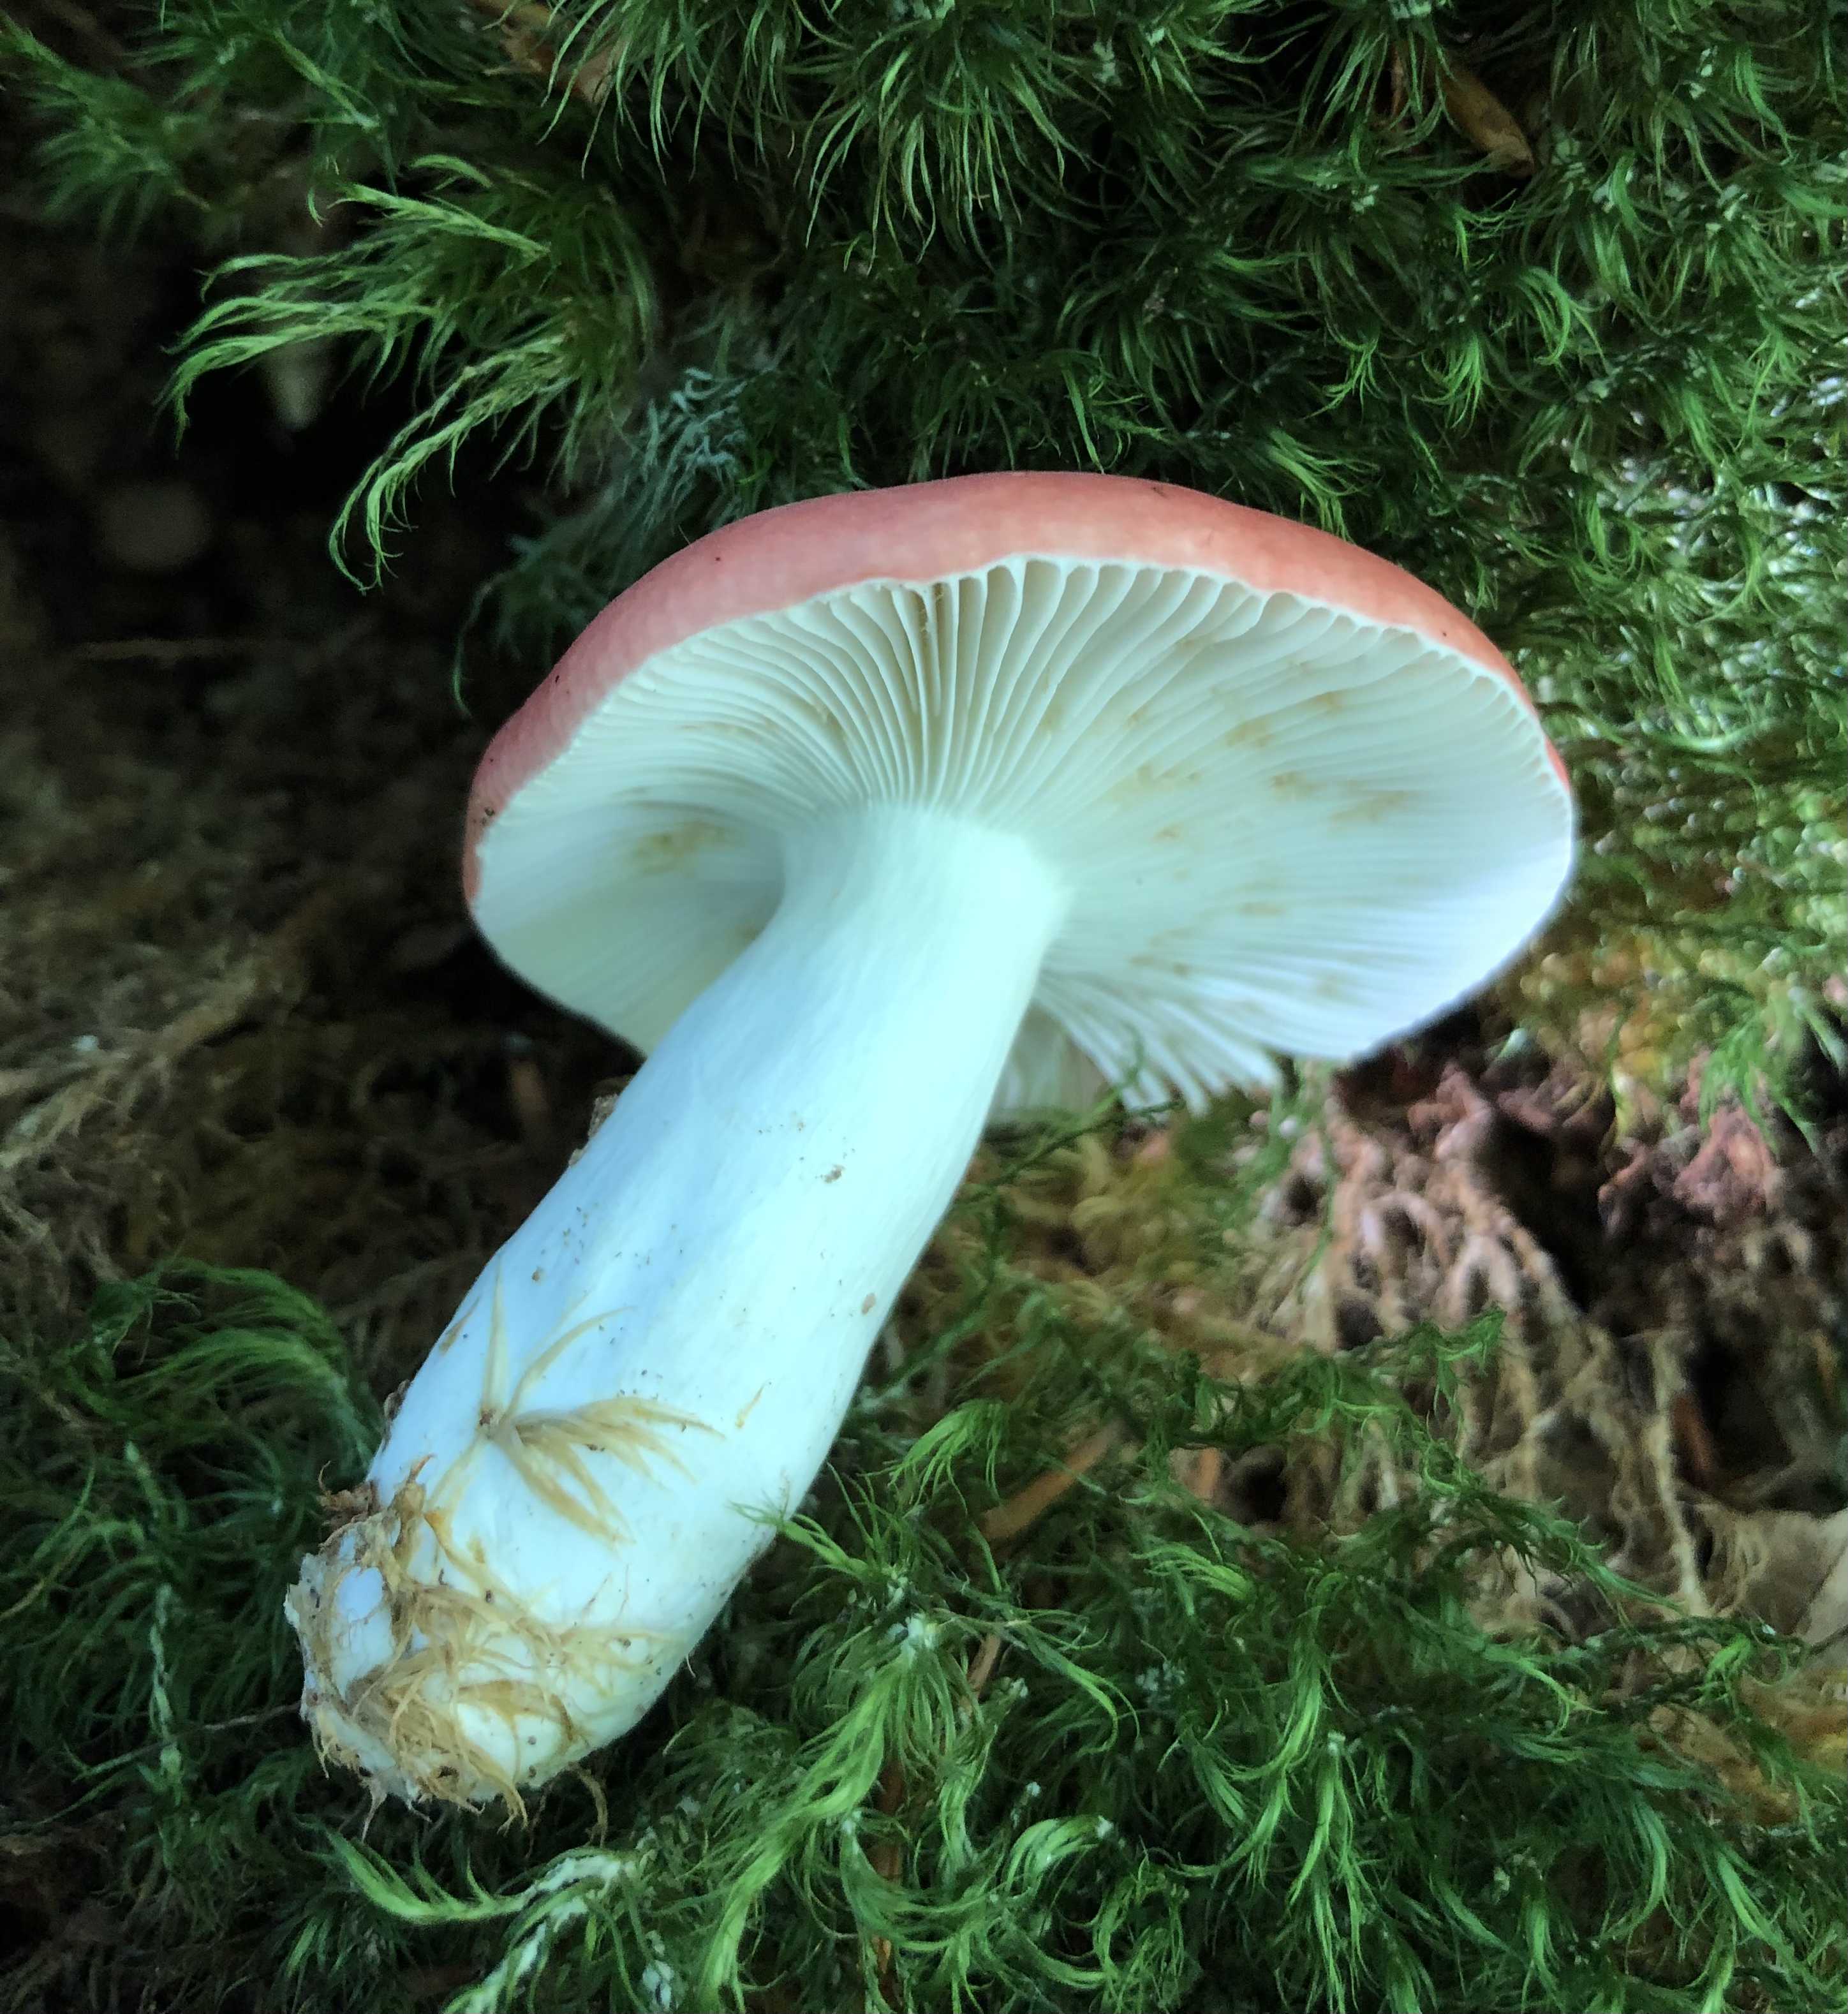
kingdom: Fungi
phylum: Basidiomycota
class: Agaricomycetes
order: Russulales
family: Russulaceae
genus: Russula
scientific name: Russula
